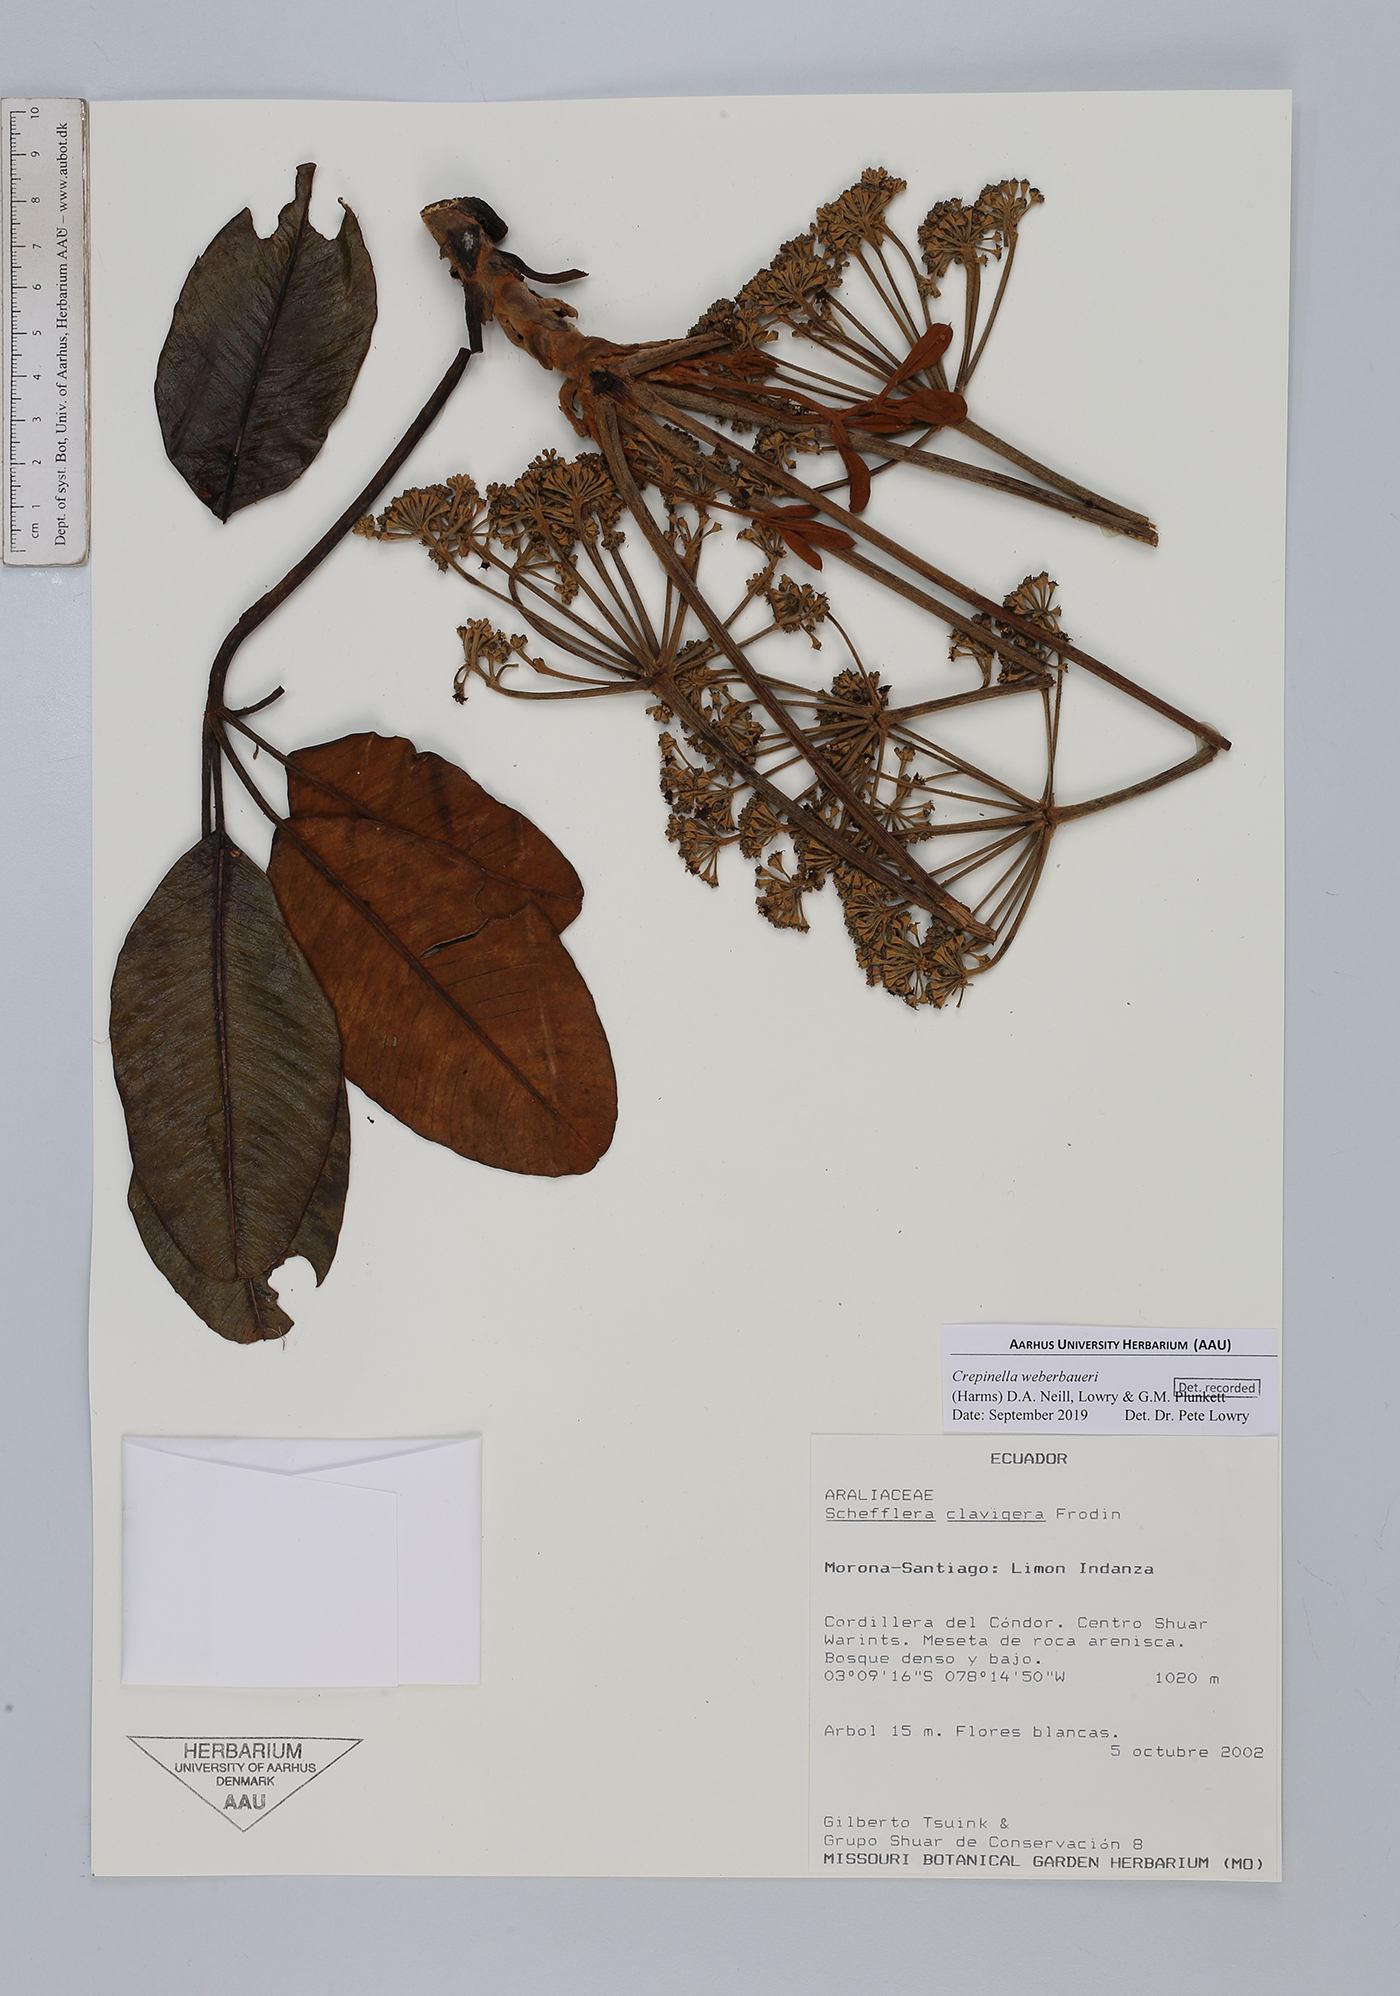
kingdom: Plantae
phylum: Tracheophyta
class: Magnoliopsida
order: Apiales
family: Araliaceae
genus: Crepinella
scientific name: Crepinella weberbaueri
